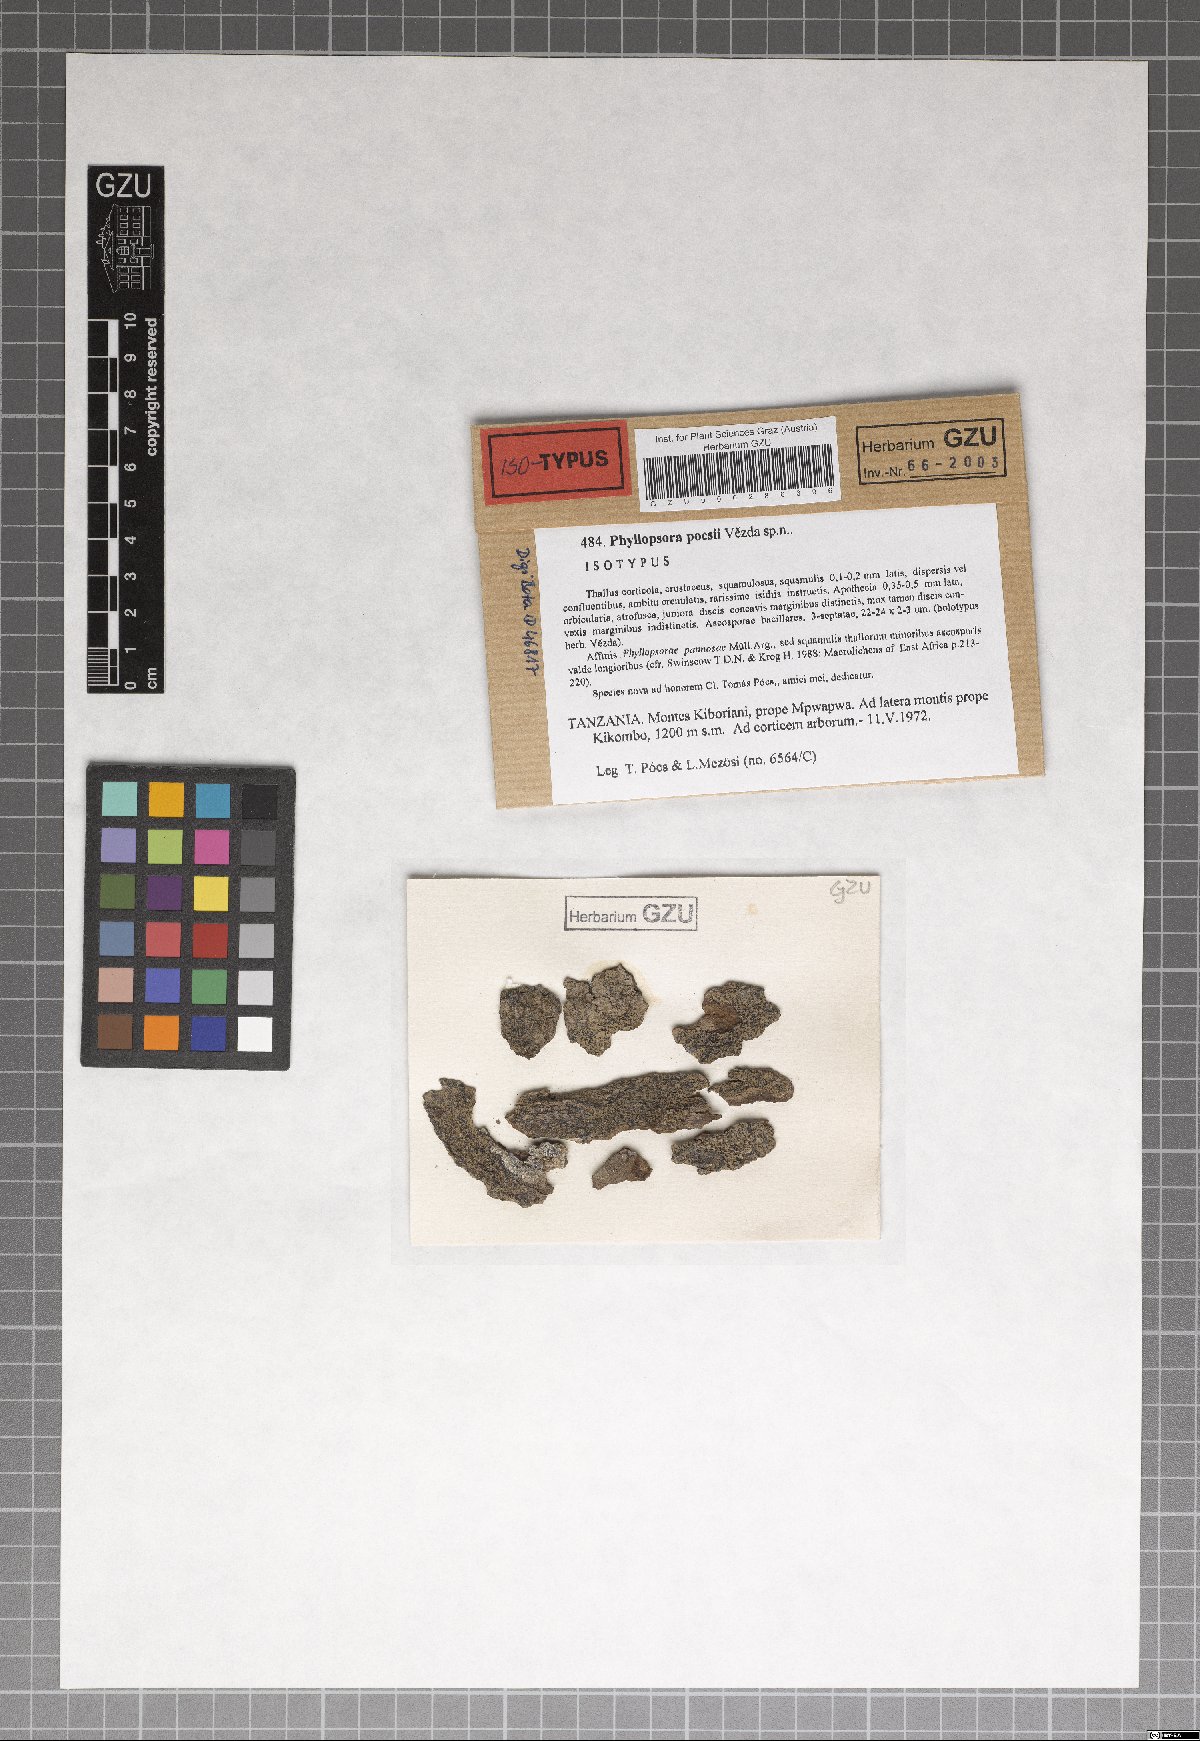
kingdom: Fungi
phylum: Ascomycota
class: Lecanoromycetes
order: Lecanorales
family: Ramalinaceae
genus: Phyllopsora
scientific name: Phyllopsora pocsii
